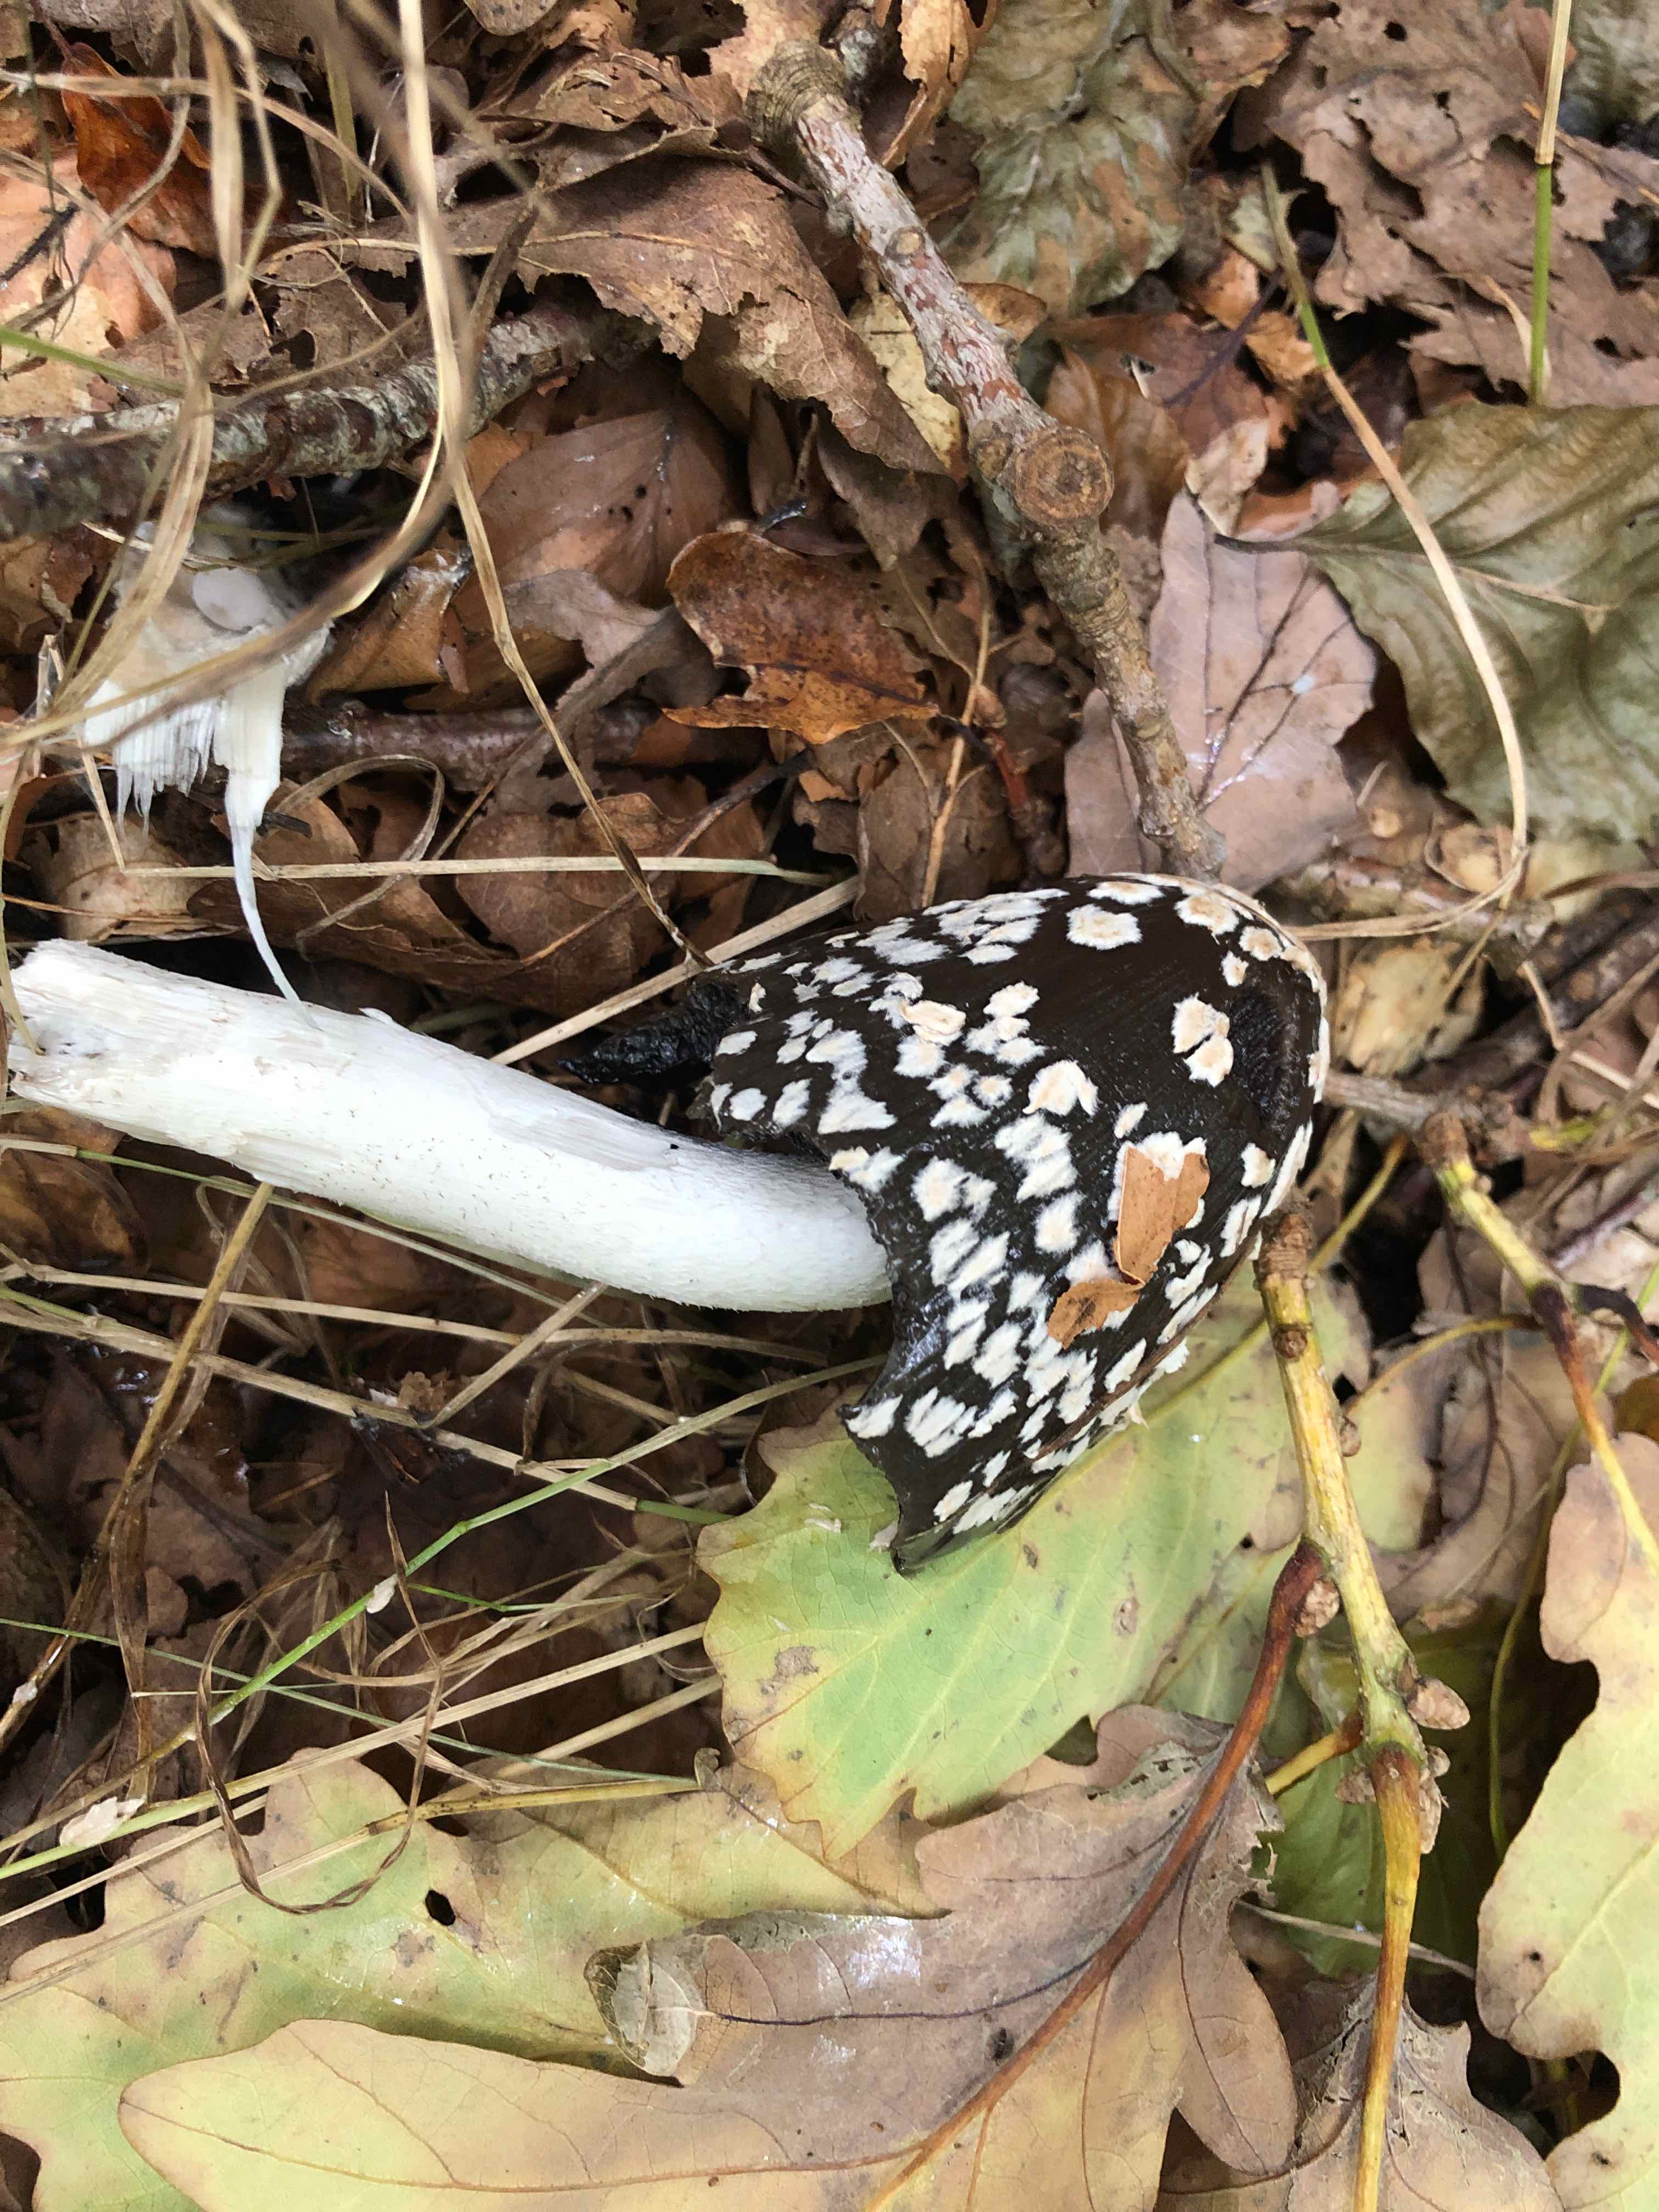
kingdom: Fungi
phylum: Basidiomycota
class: Agaricomycetes
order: Agaricales
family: Psathyrellaceae
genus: Coprinopsis
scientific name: Coprinopsis picacea
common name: skade-blækhat
